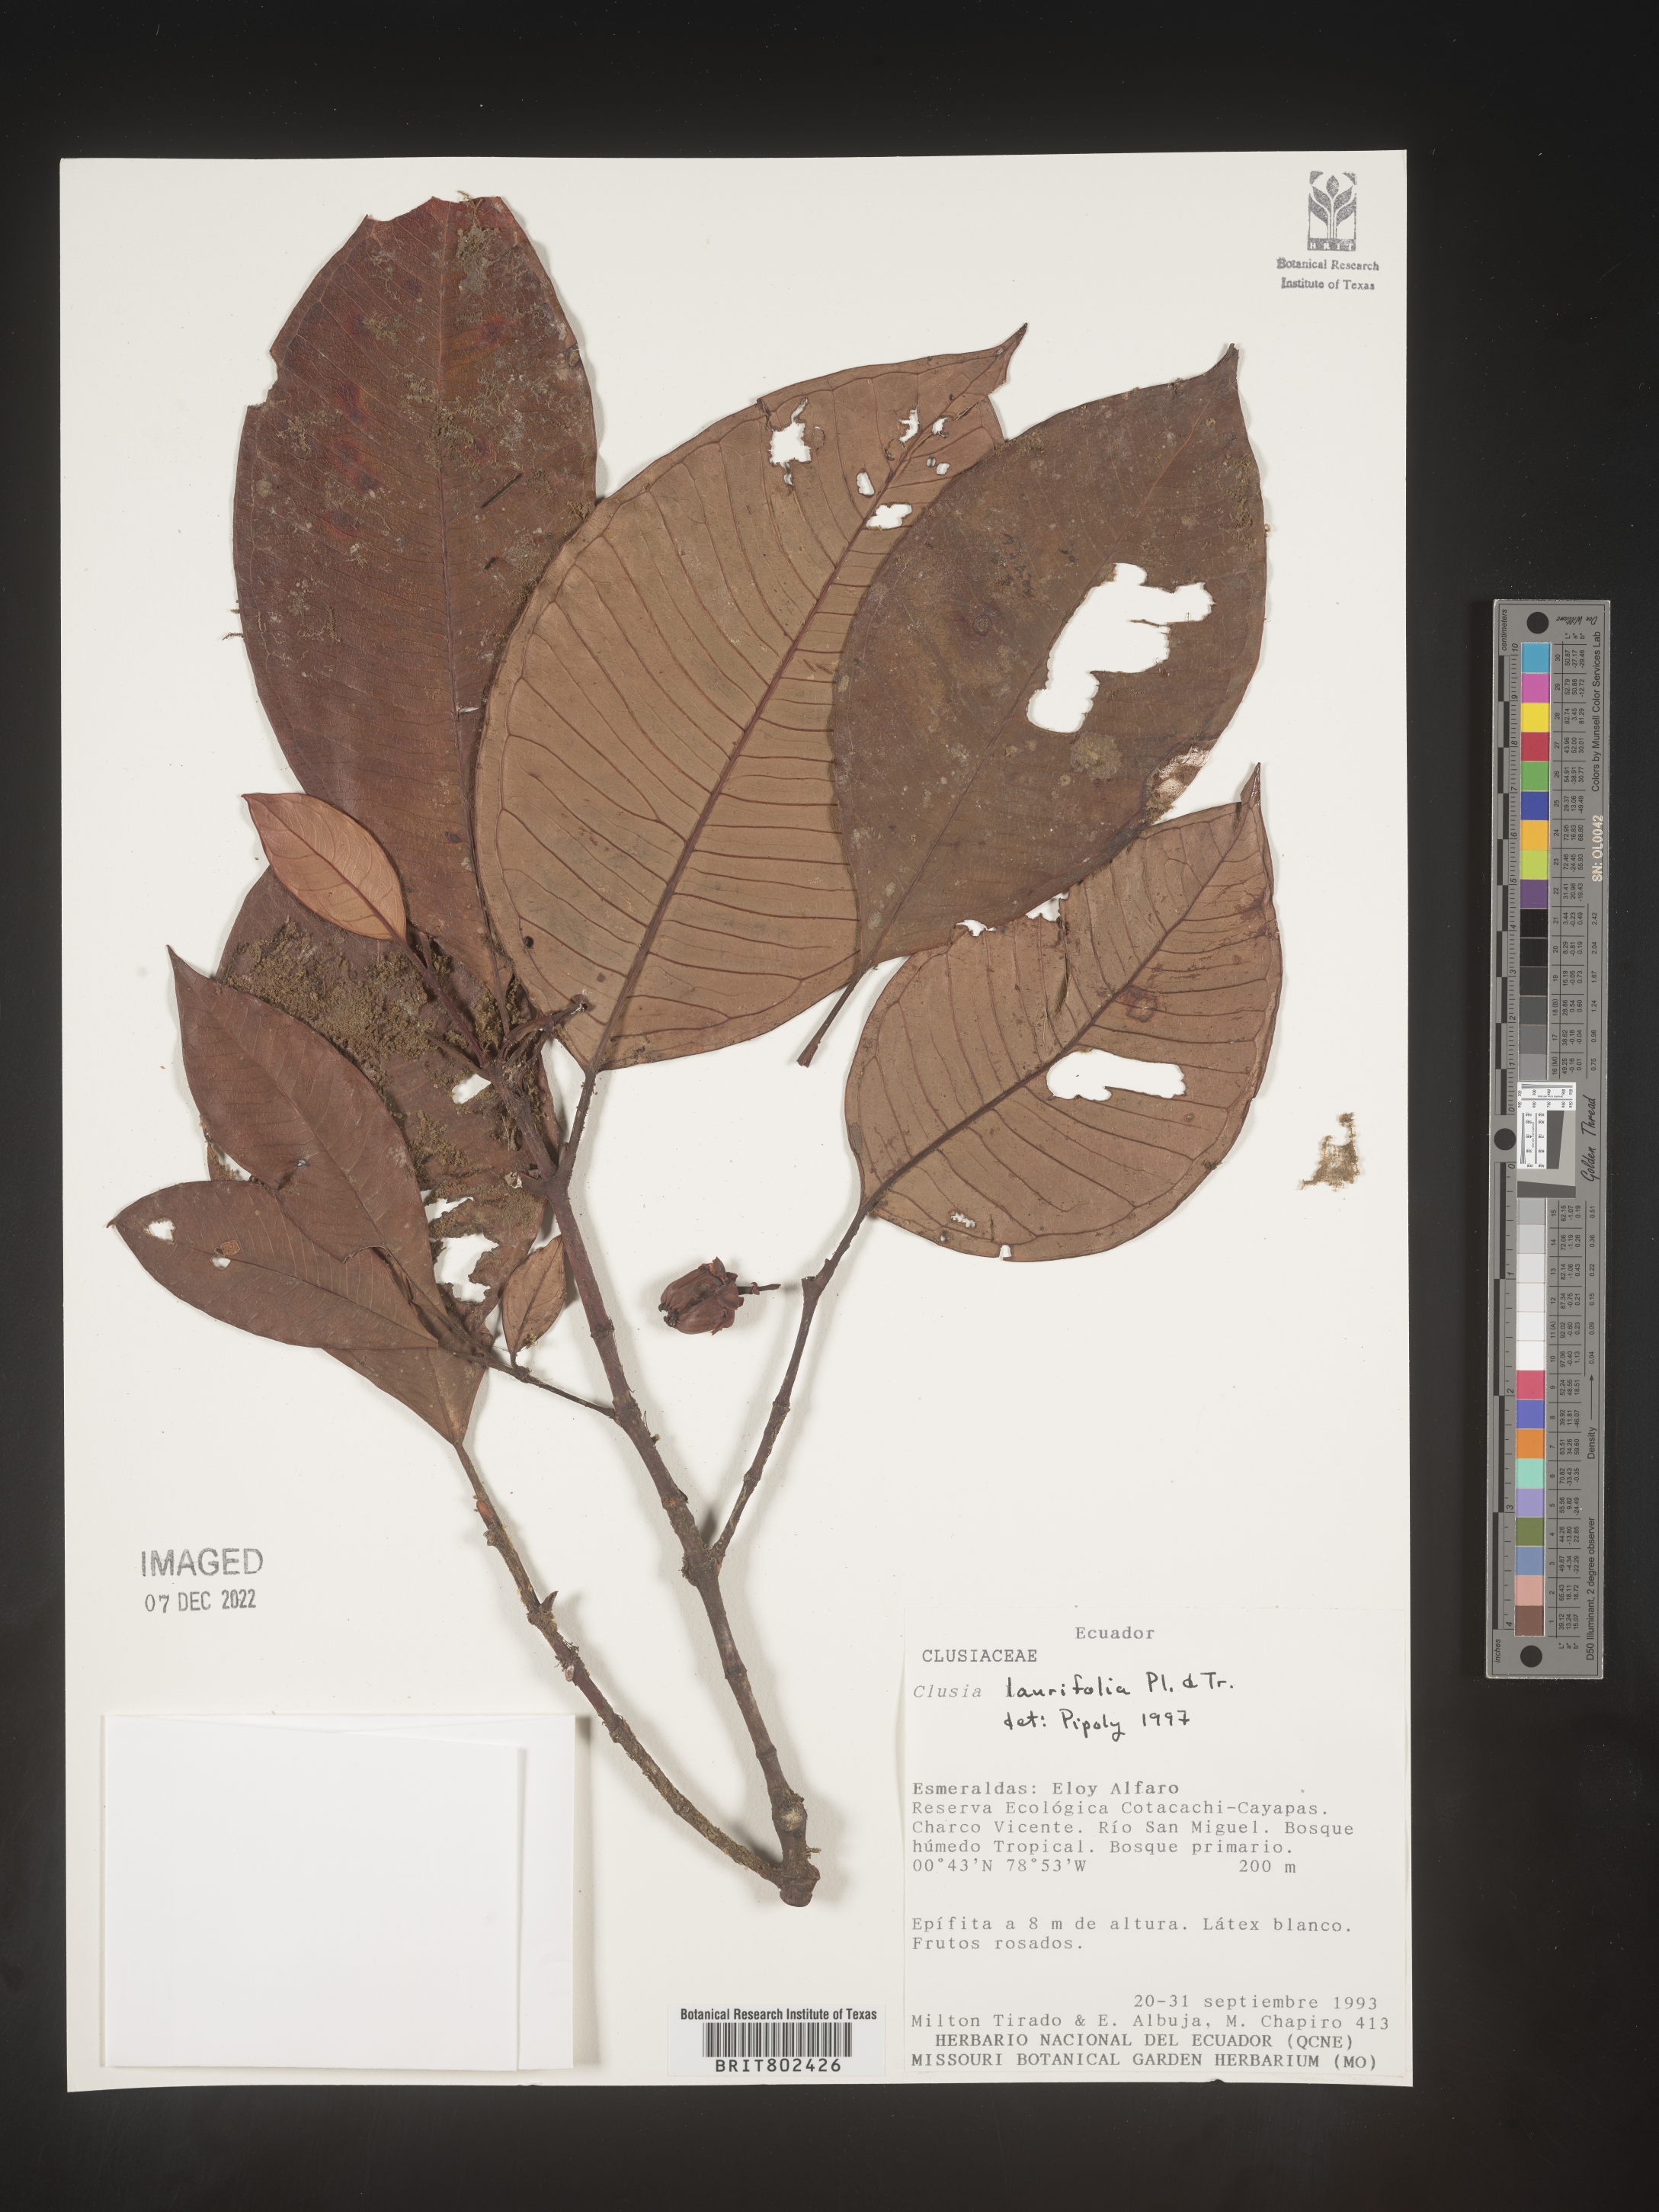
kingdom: Plantae
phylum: Tracheophyta
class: Magnoliopsida
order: Malpighiales
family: Clusiaceae
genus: Clusia
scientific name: Clusia laurifolia
